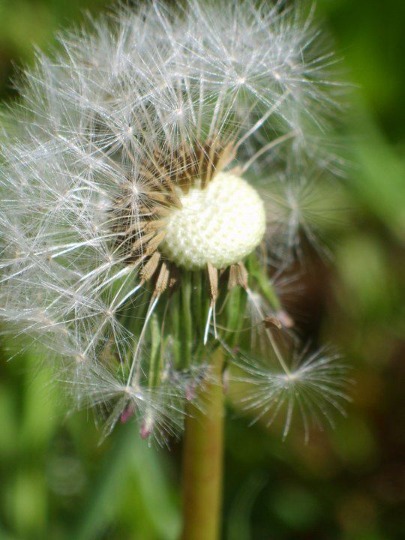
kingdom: Plantae
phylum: Tracheophyta
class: Magnoliopsida
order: Asterales
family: Asteraceae
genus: Taraxacum
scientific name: Taraxacum
